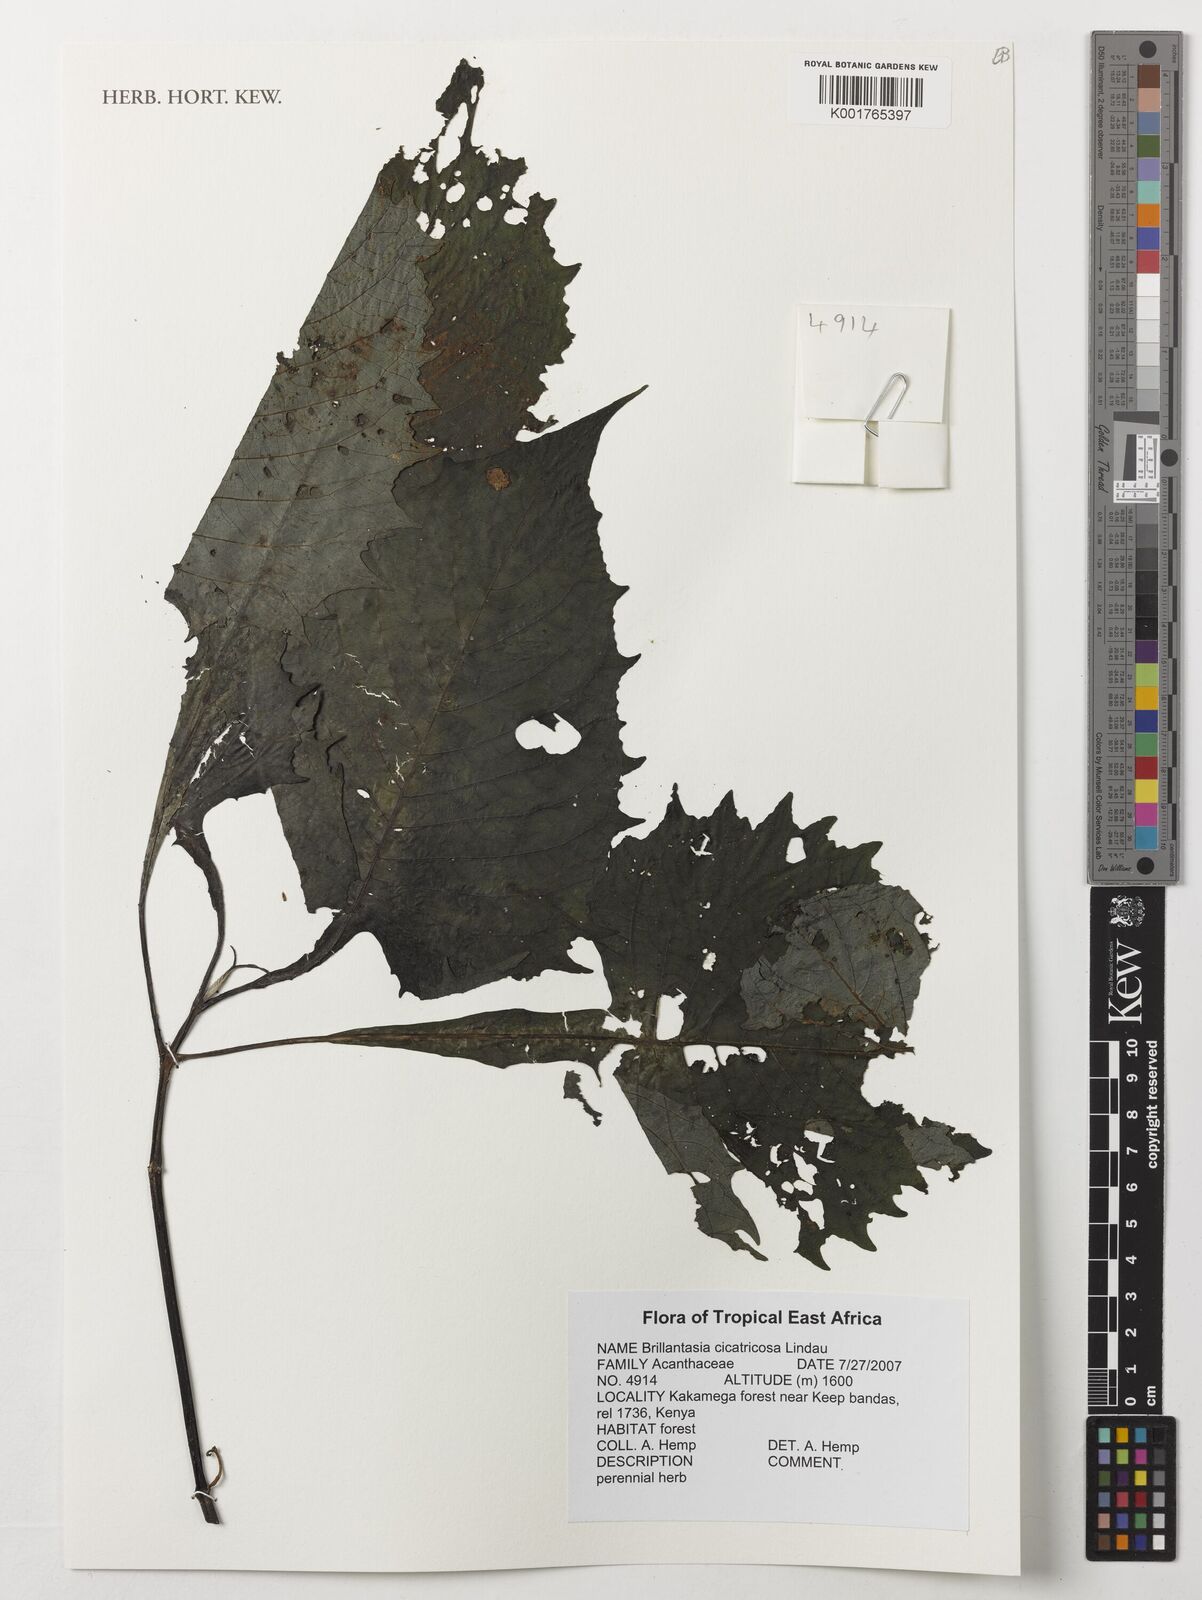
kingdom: Plantae
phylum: Tracheophyta
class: Magnoliopsida
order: Lamiales
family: Acanthaceae
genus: Brillantaisia
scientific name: Brillantaisia cicatricosa
